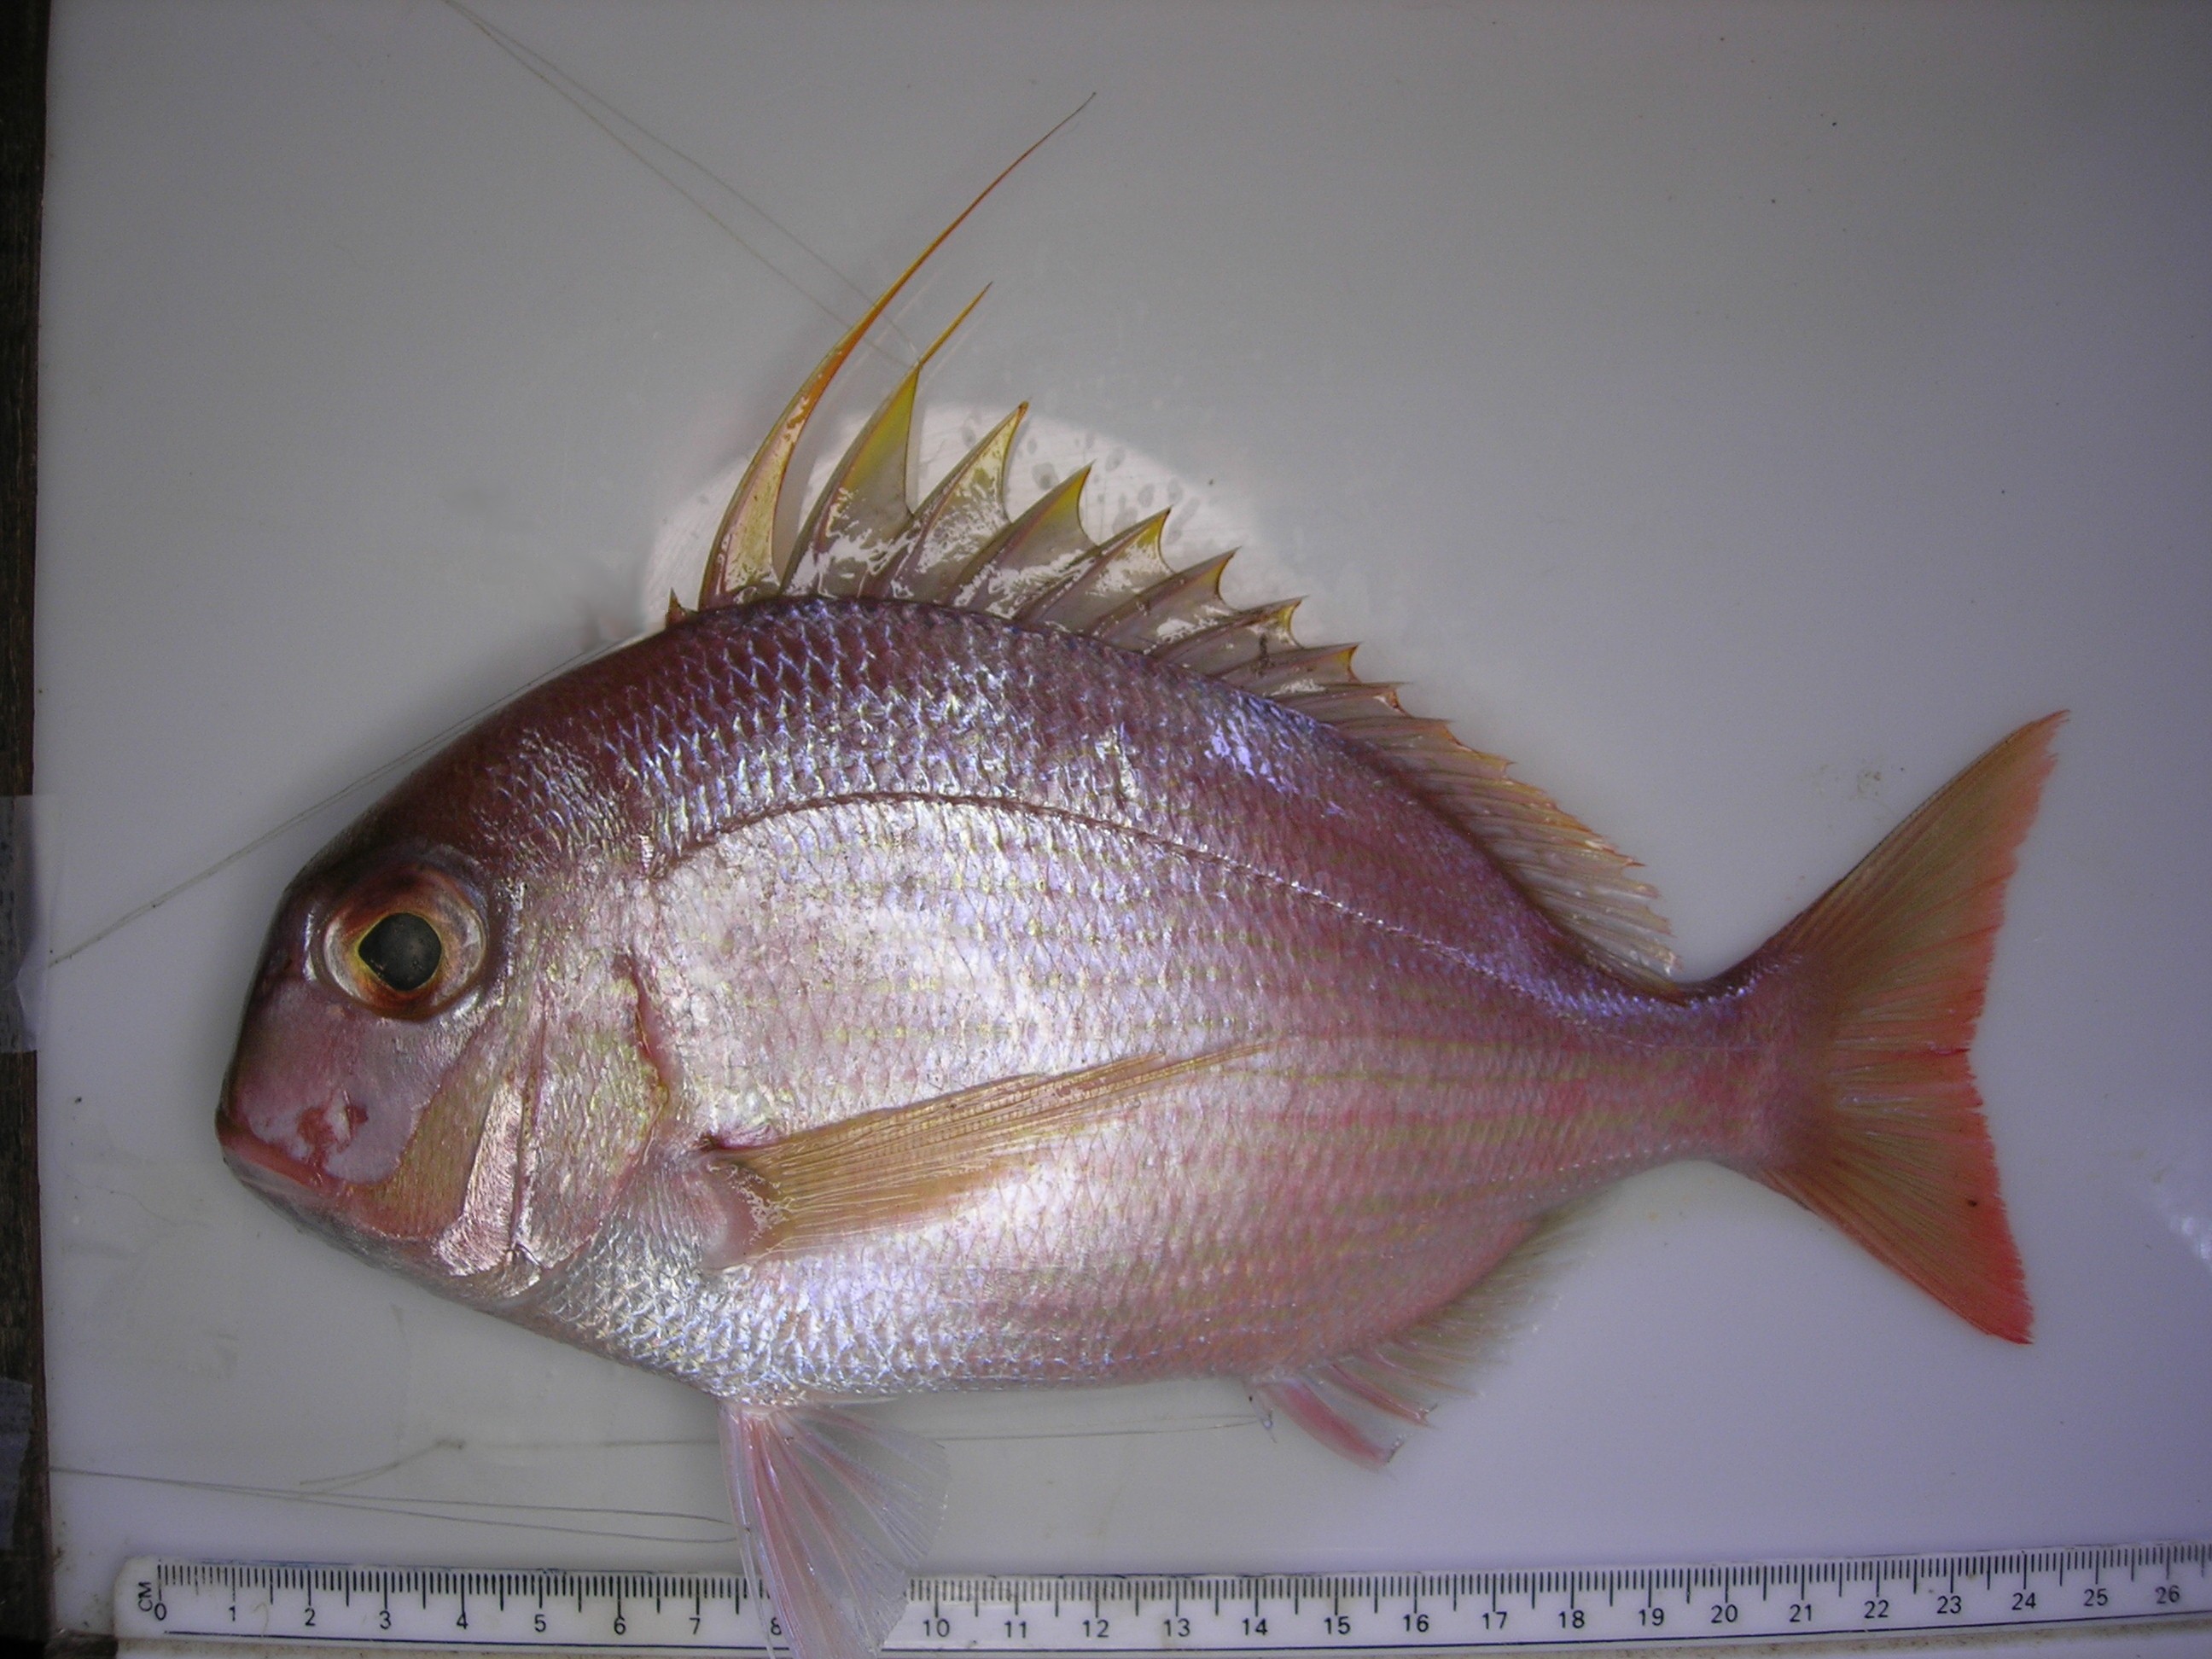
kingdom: Animalia
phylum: Chordata
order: Perciformes
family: Sparidae
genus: Argyrops
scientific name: Argyrops filamentosus
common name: Soldier bream
